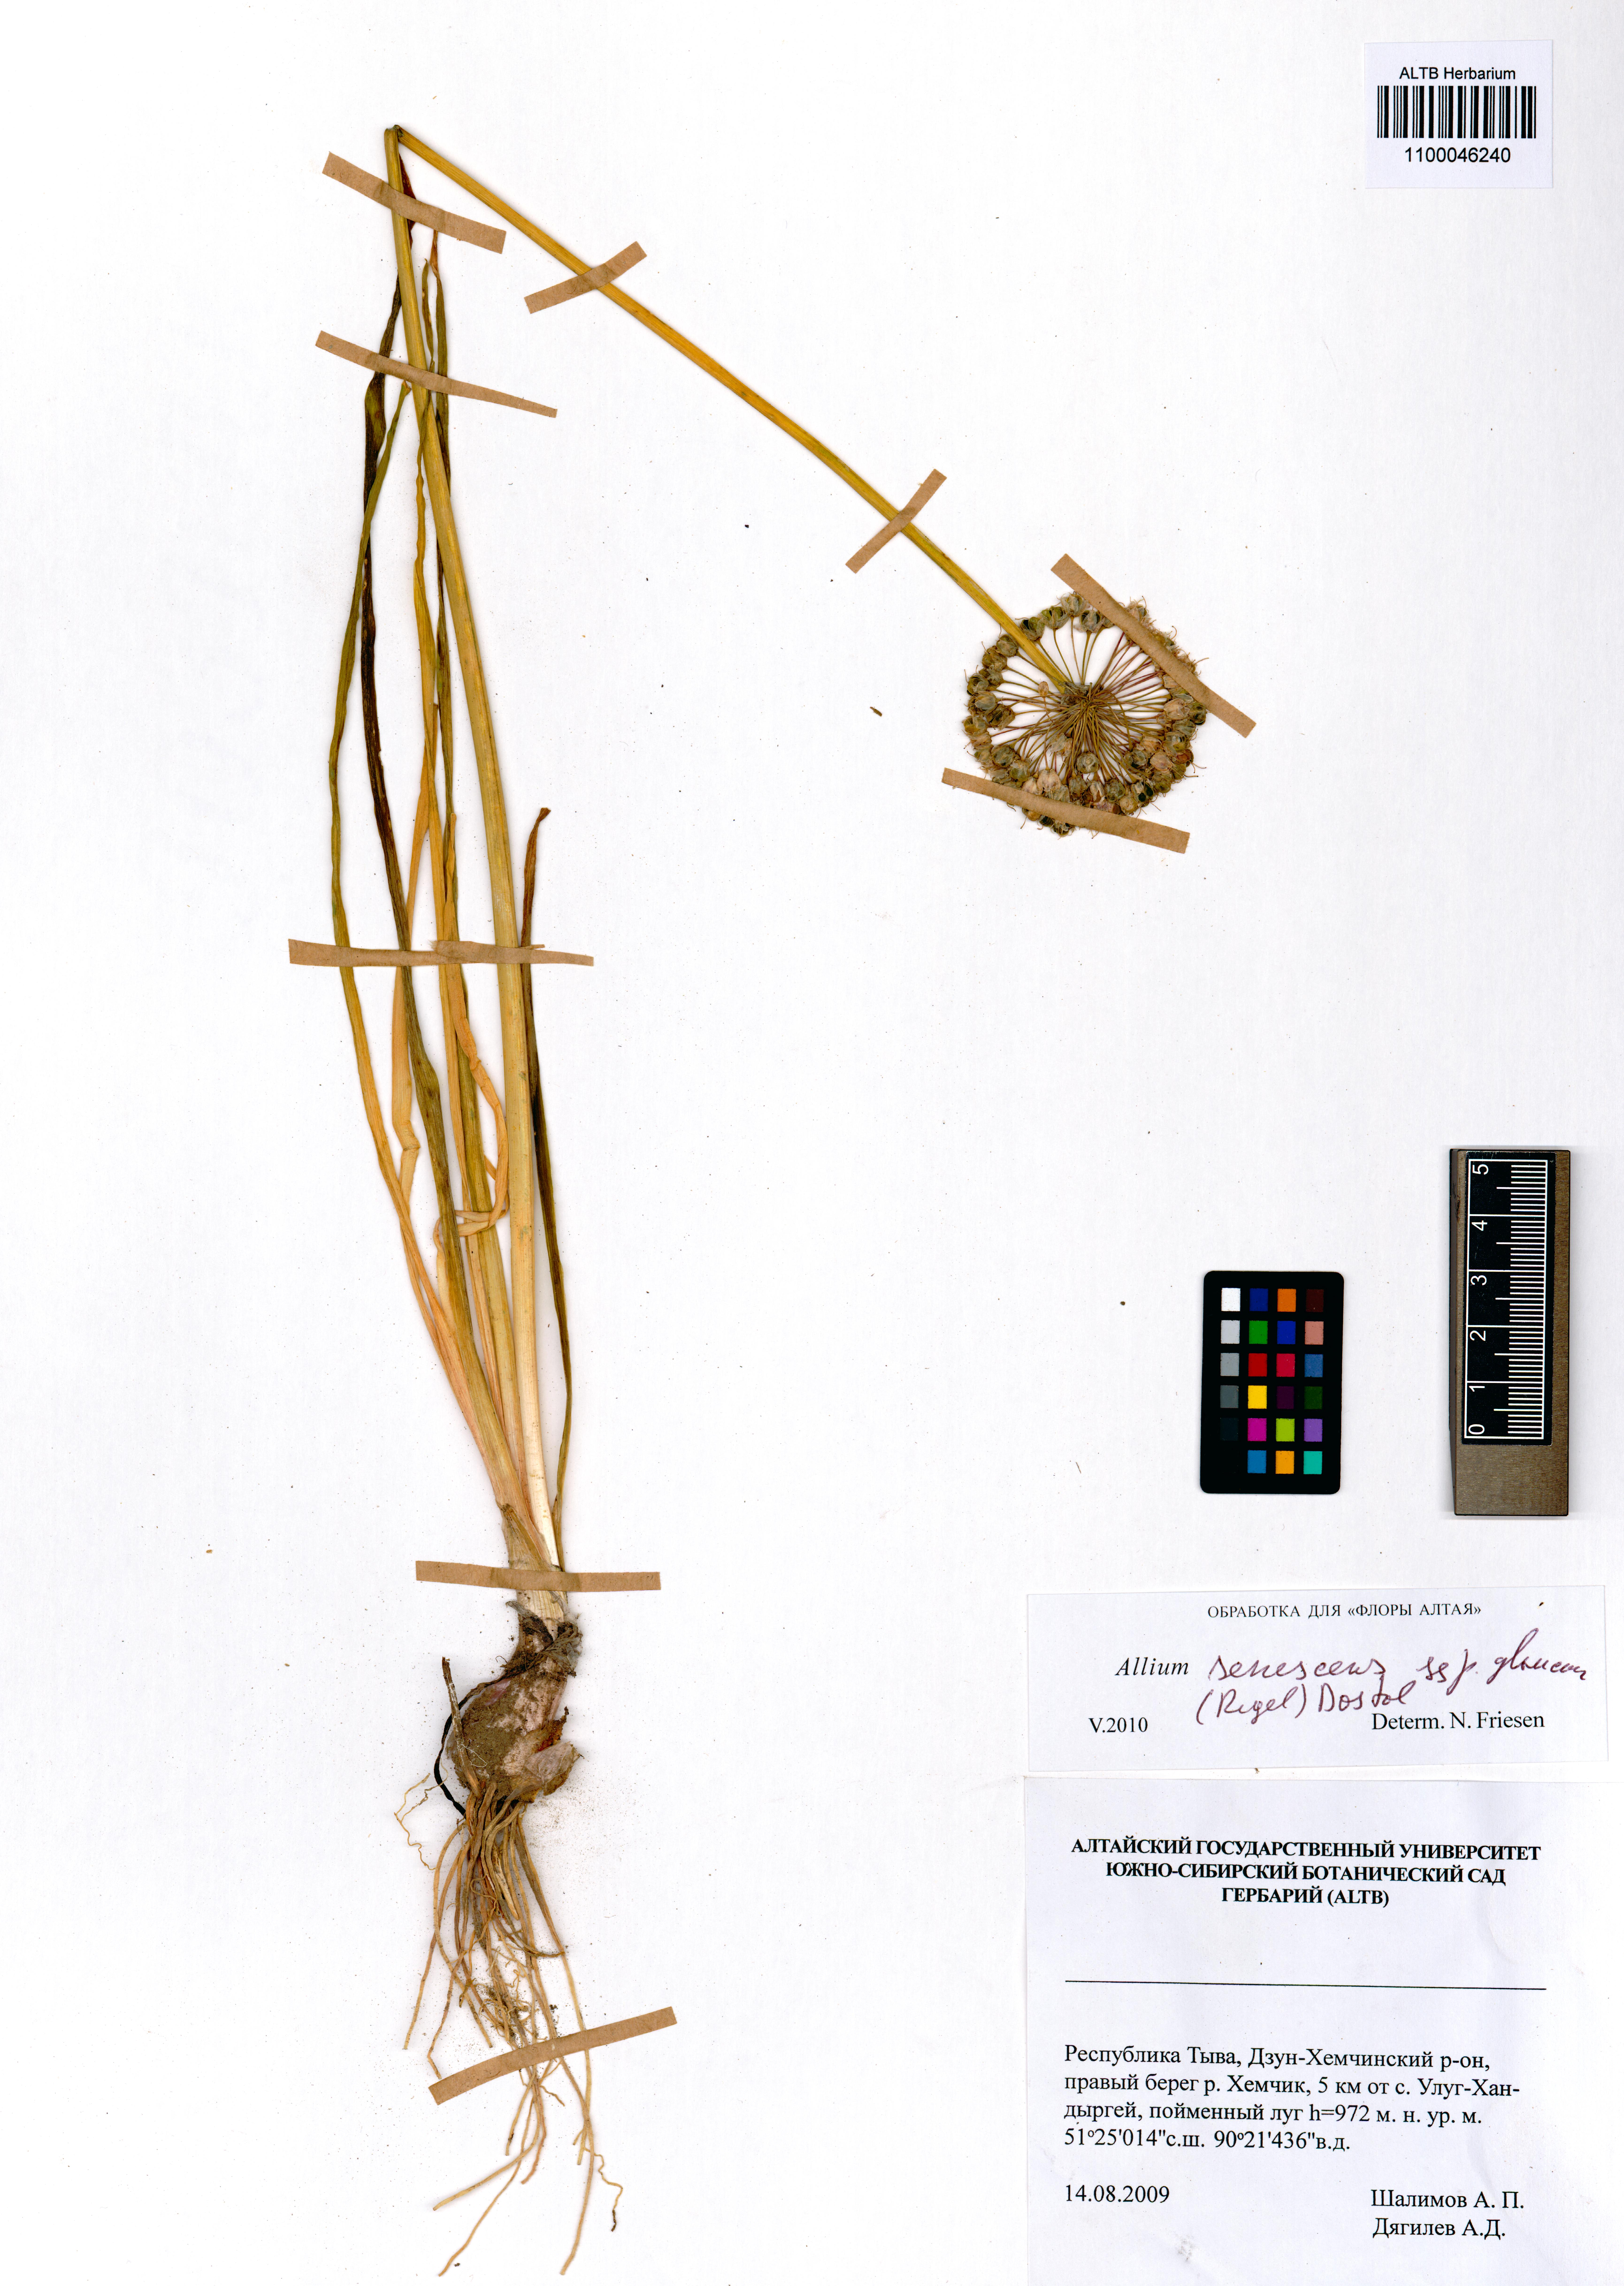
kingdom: Plantae
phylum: Tracheophyta
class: Liliopsida
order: Asparagales
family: Amaryllidaceae
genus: Allium
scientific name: Allium senescens
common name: German garlic
